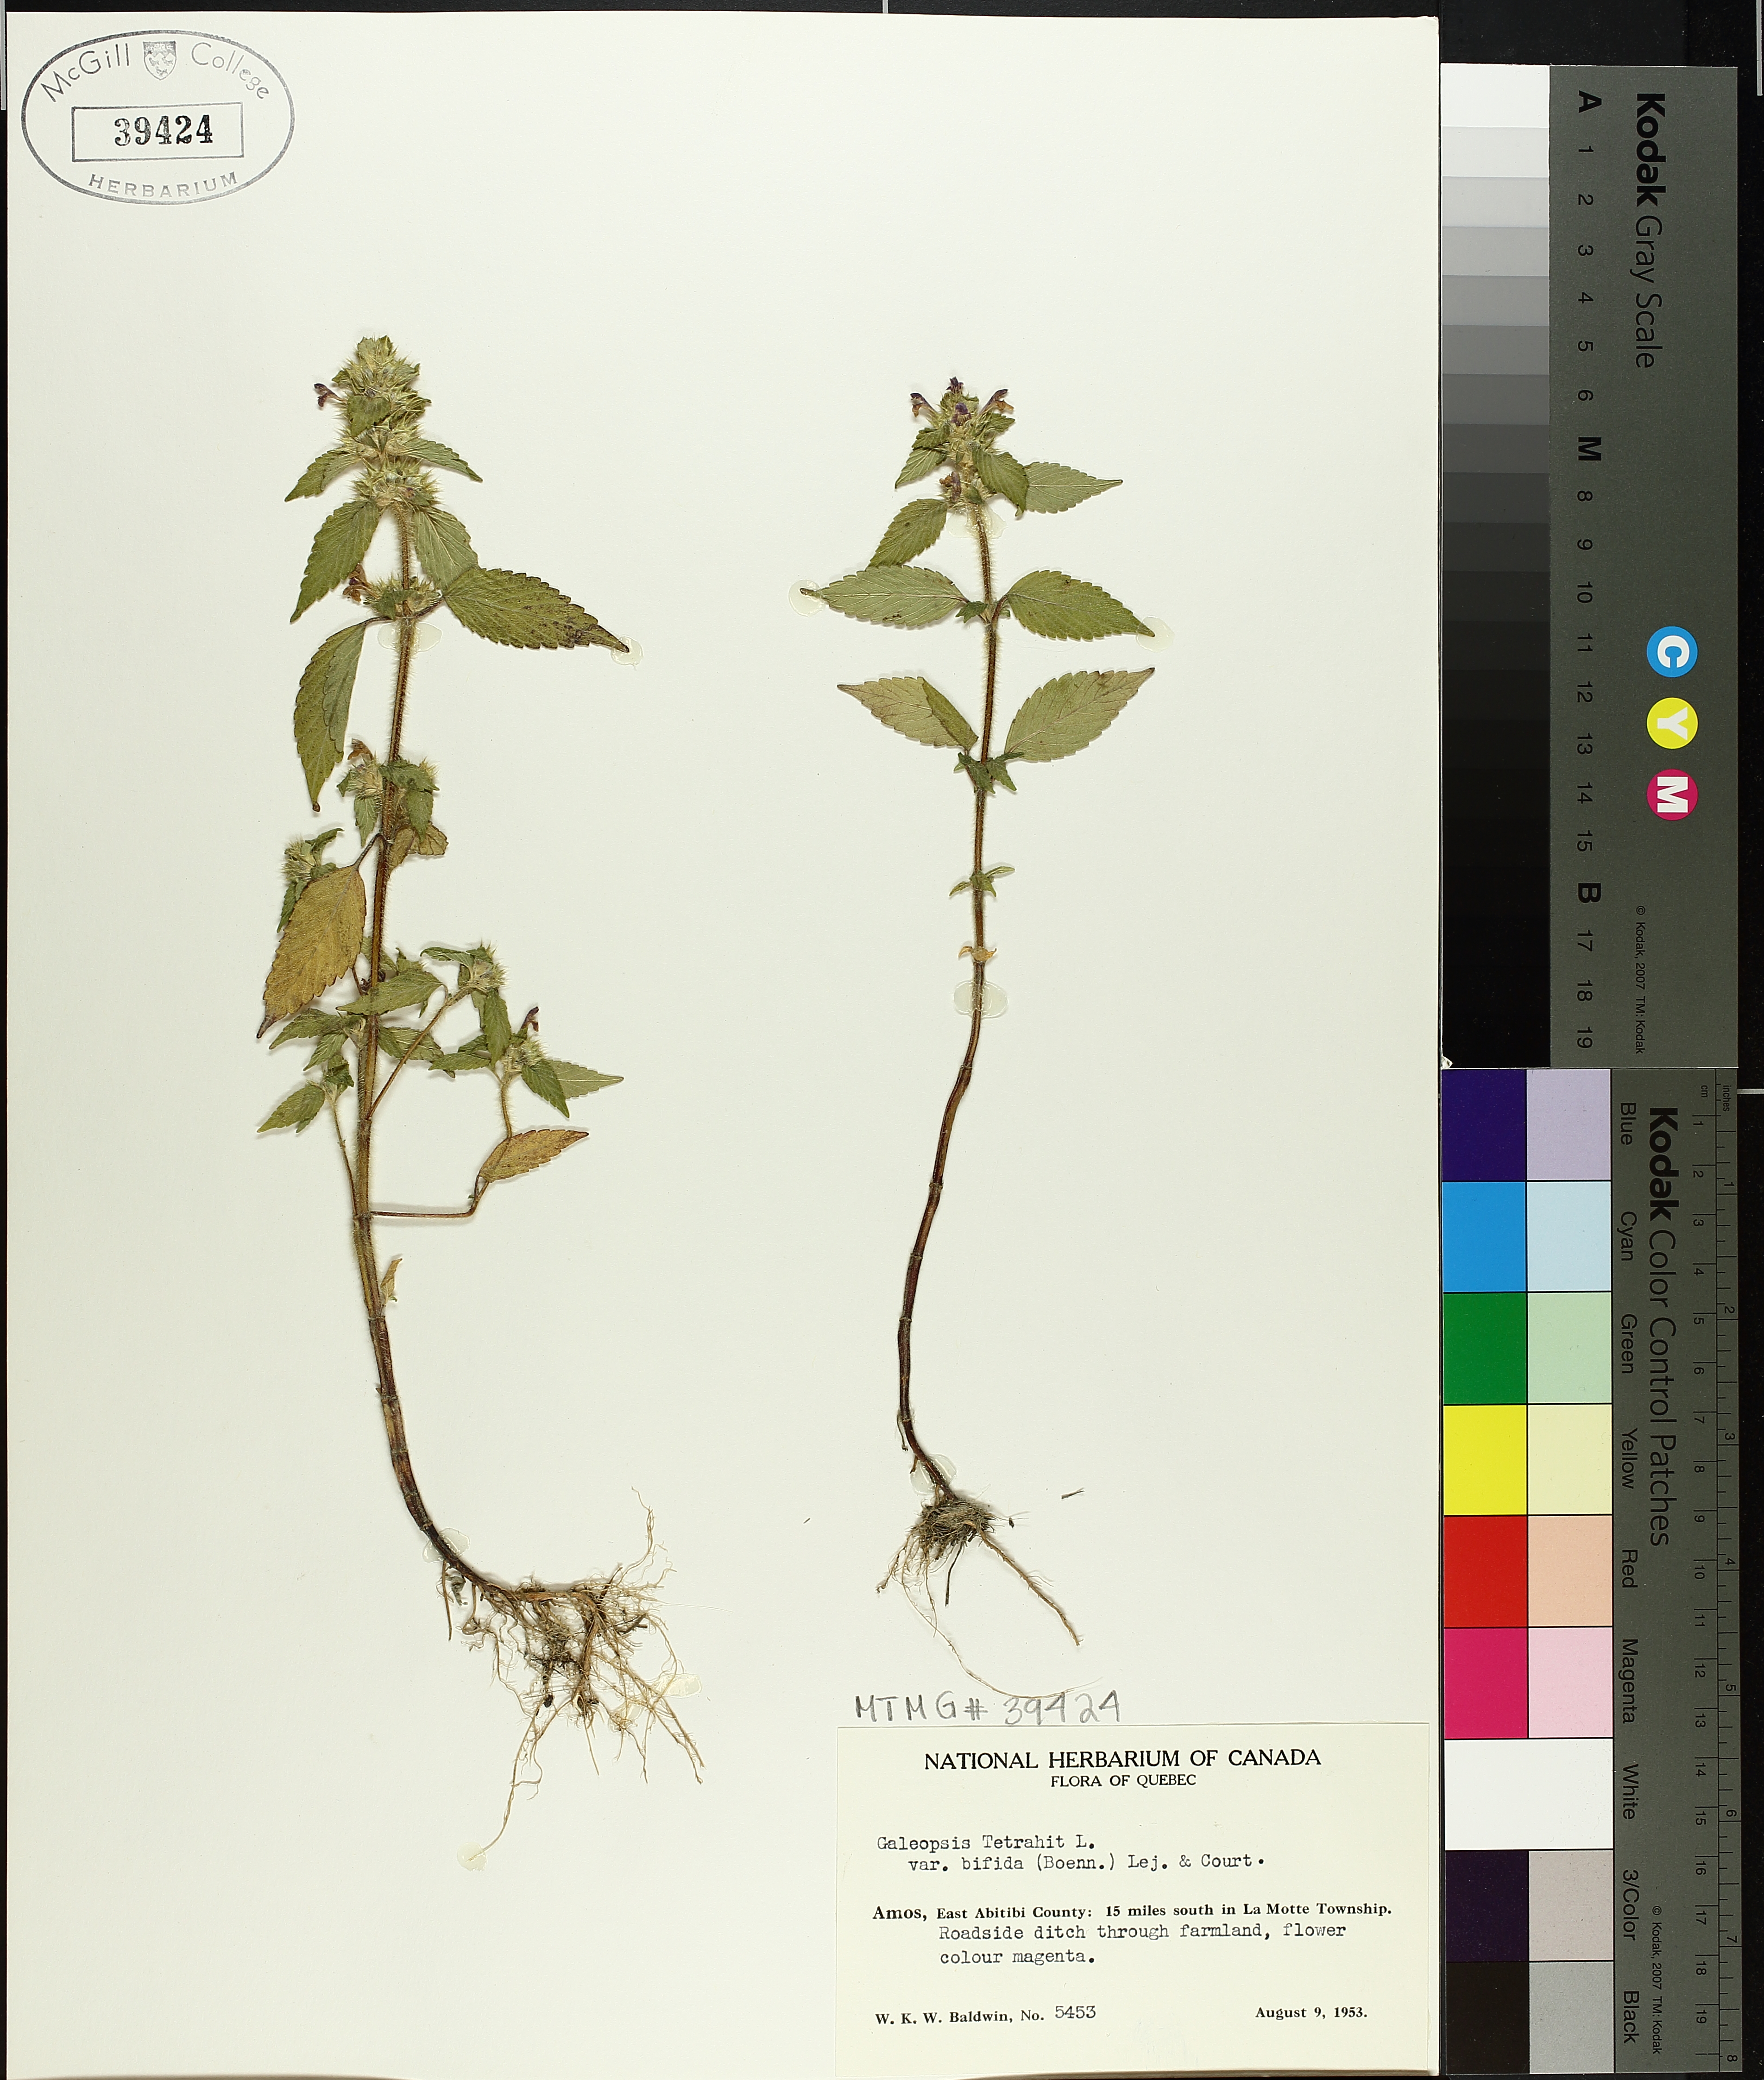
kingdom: Plantae
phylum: Tracheophyta
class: Magnoliopsida
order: Lamiales
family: Lamiaceae
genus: Galeopsis
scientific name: Galeopsis bifida
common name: Bifid hemp-nettle
